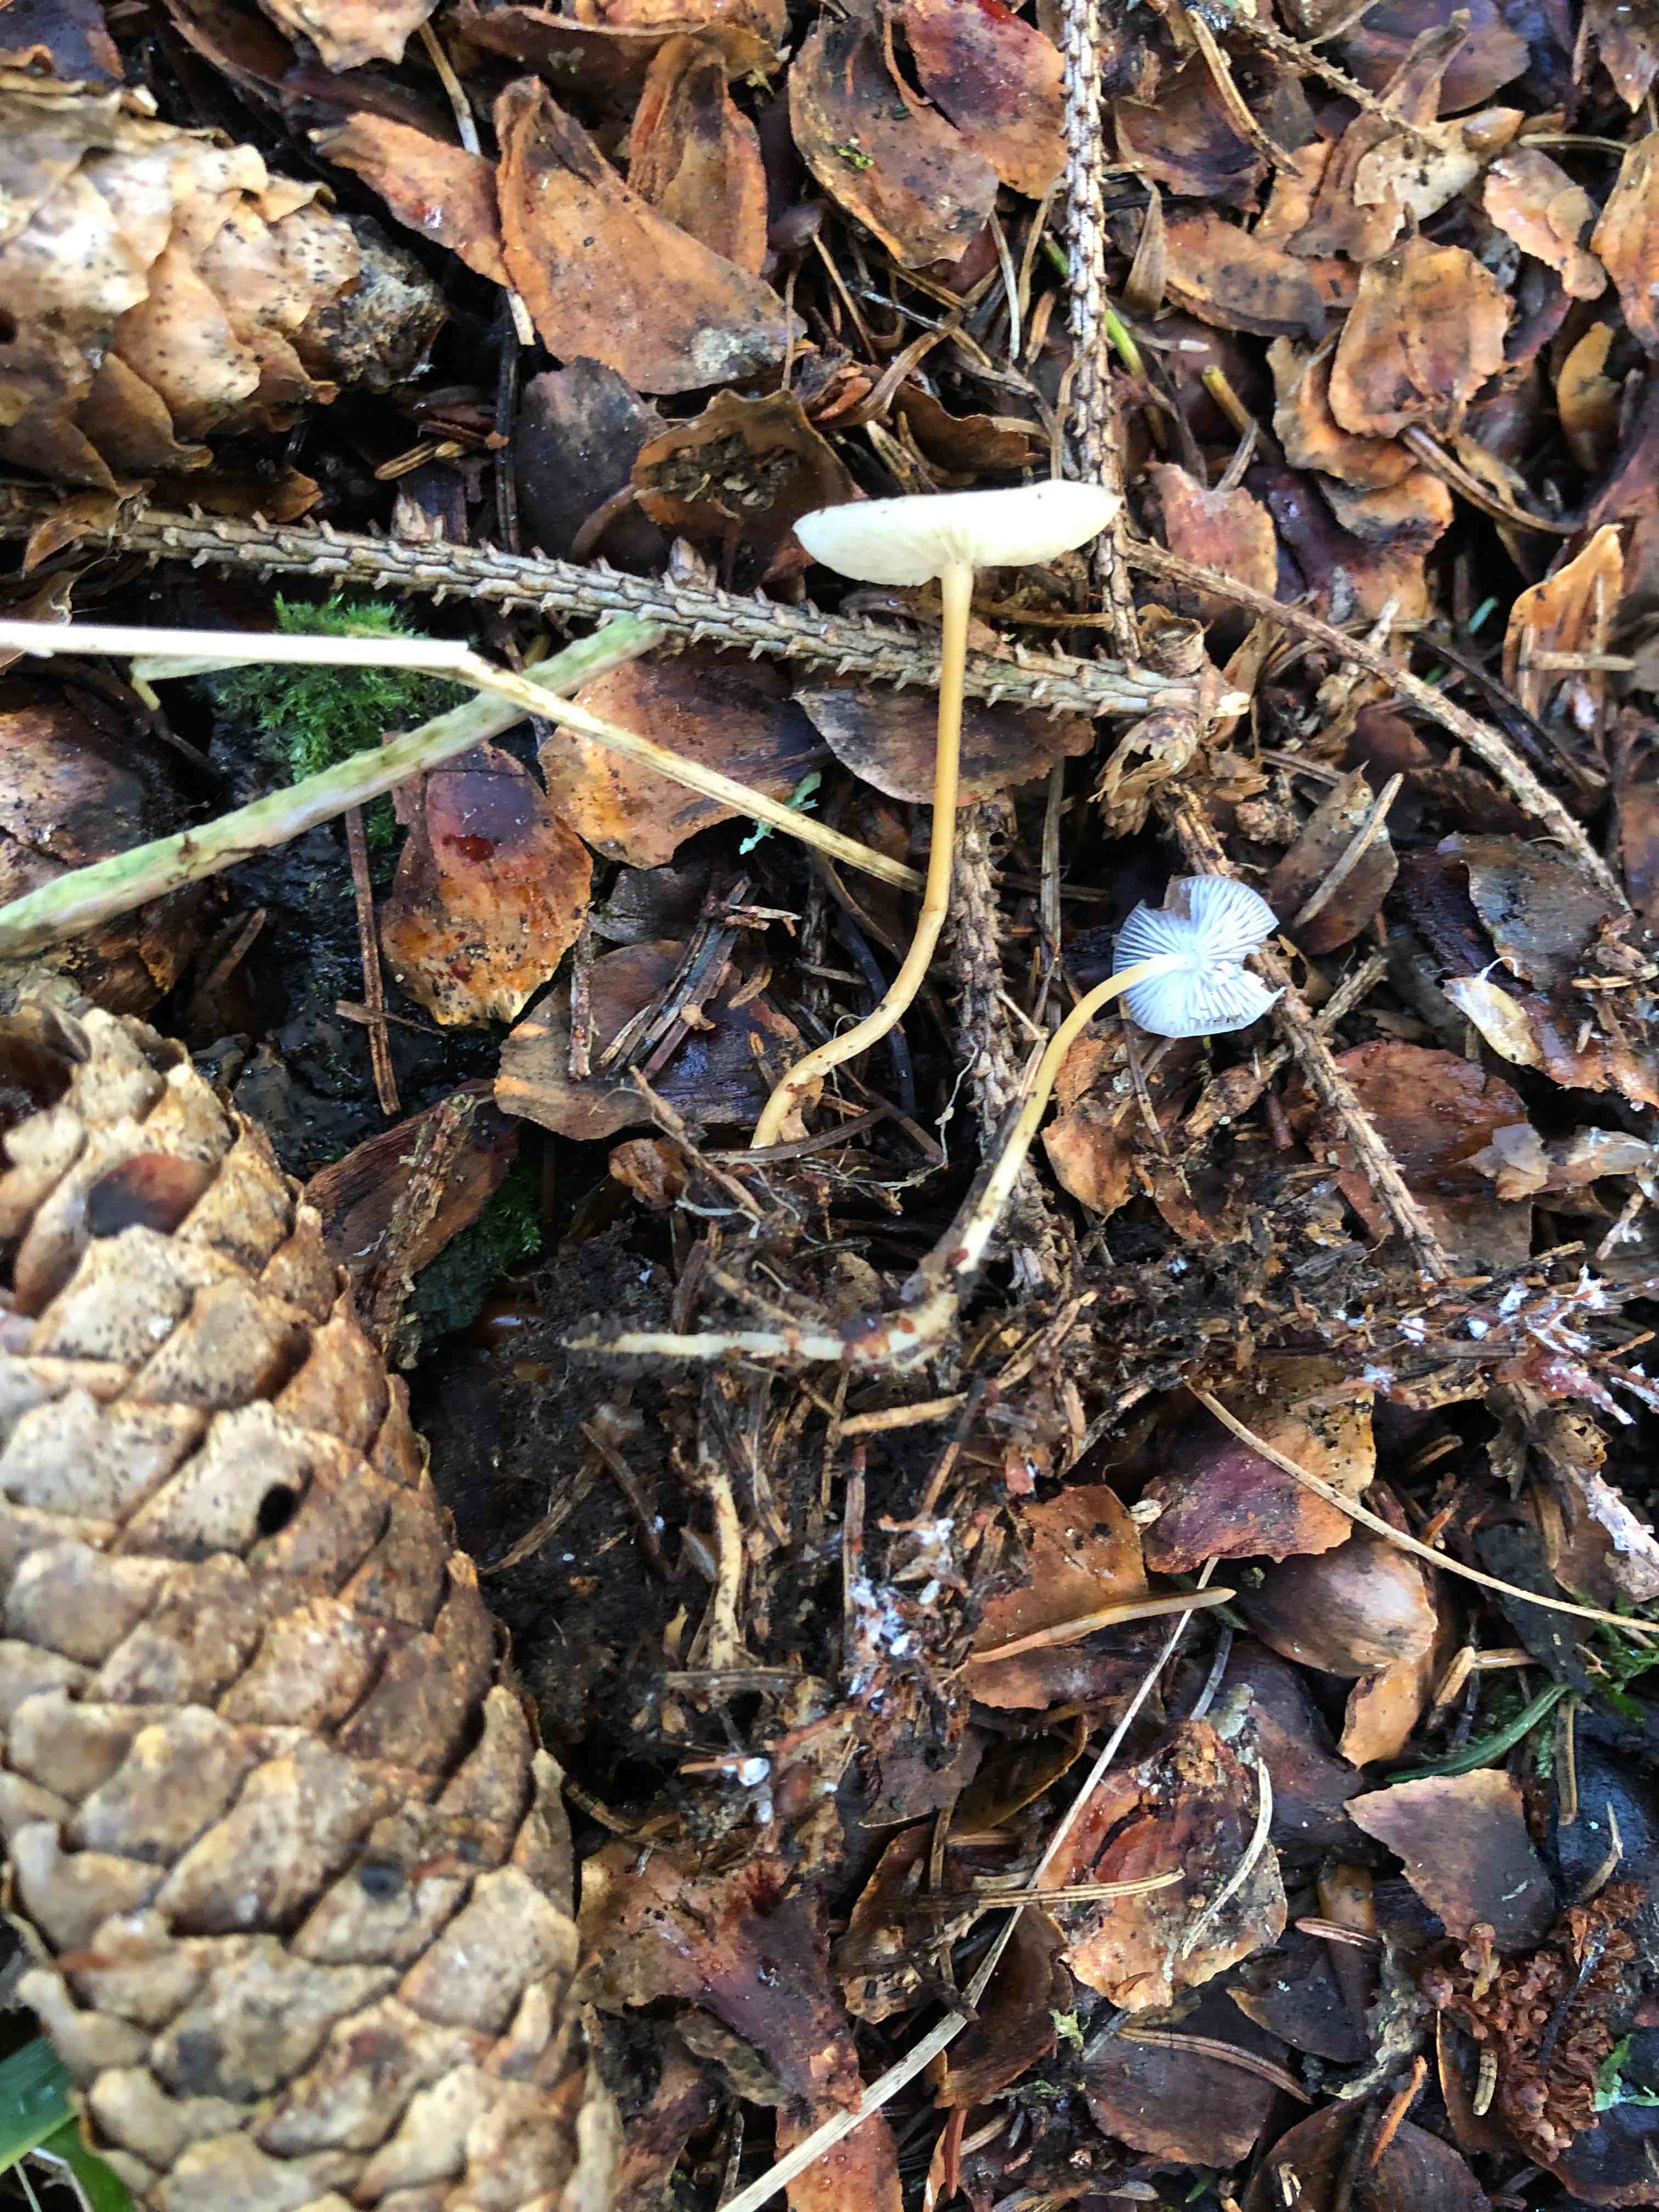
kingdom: Fungi
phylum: Basidiomycota
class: Agaricomycetes
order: Agaricales
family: Physalacriaceae
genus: Strobilurus
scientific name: Strobilurus esculentus
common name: gran-koglehat
